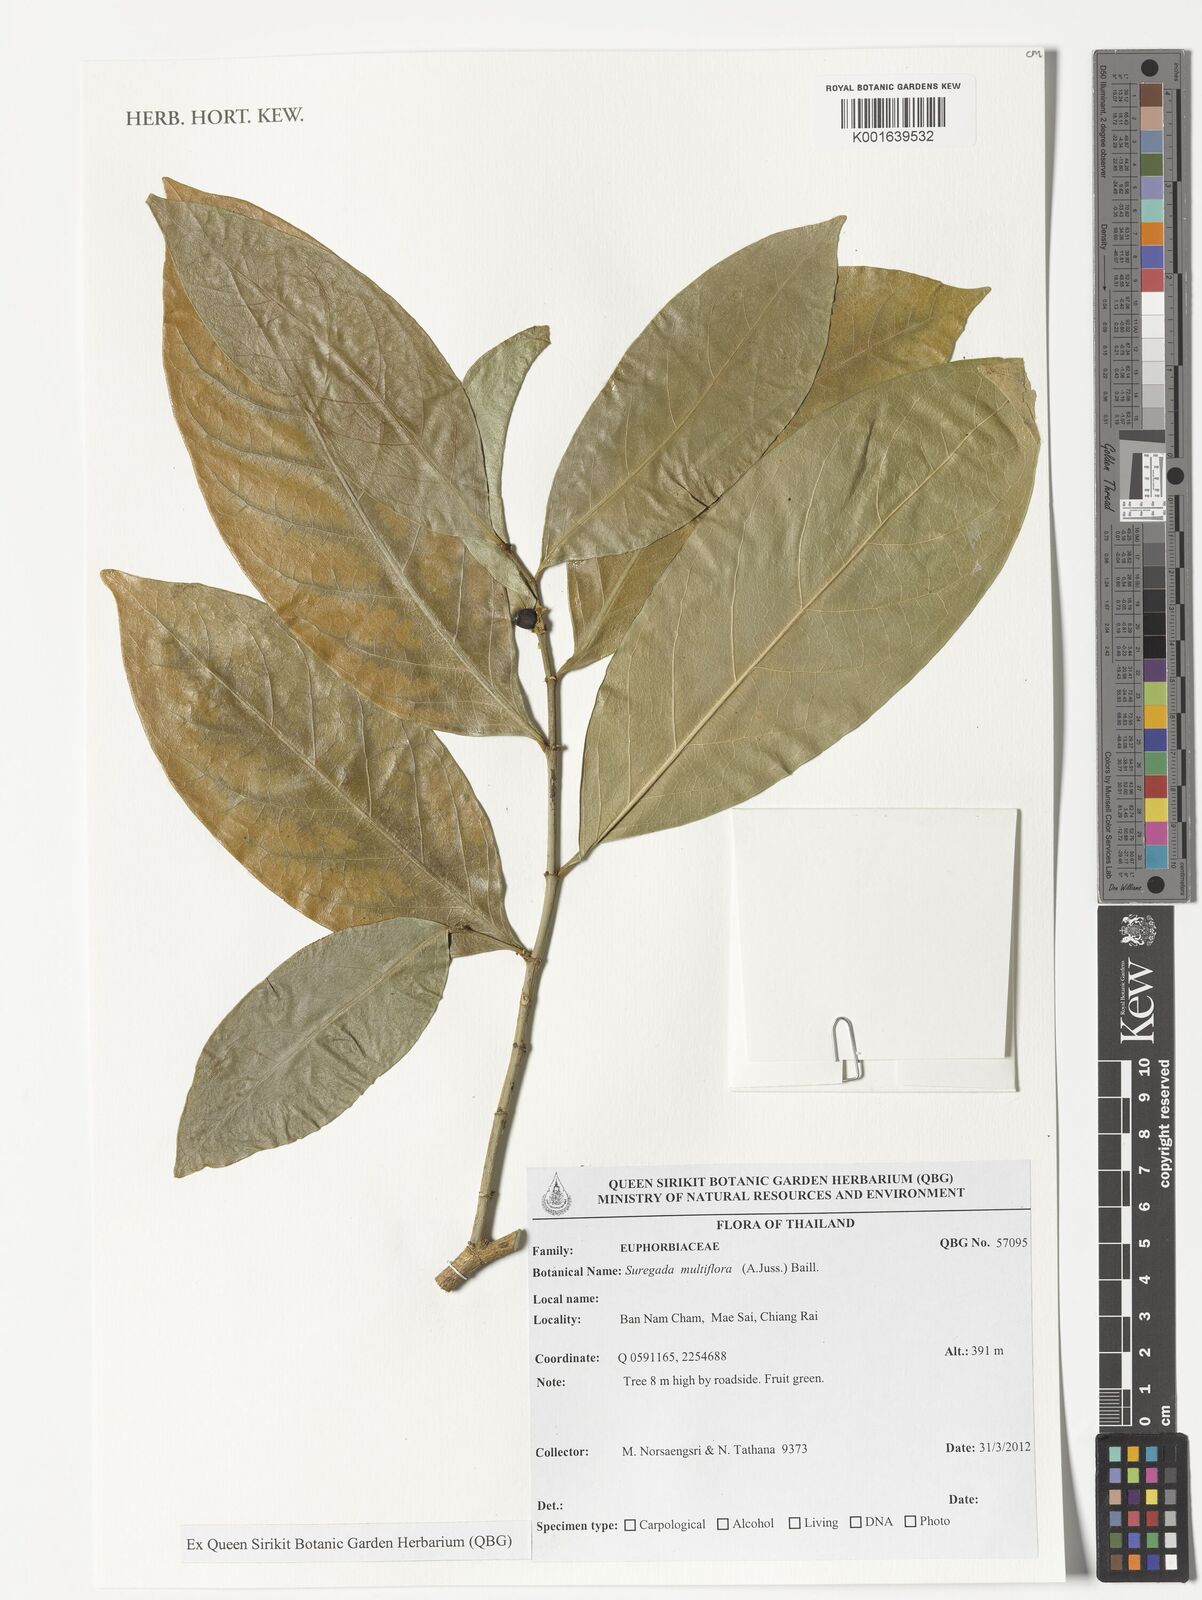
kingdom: Plantae
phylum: Tracheophyta
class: Magnoliopsida
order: Malpighiales
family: Euphorbiaceae
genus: Suregada
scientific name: Suregada multiflora
